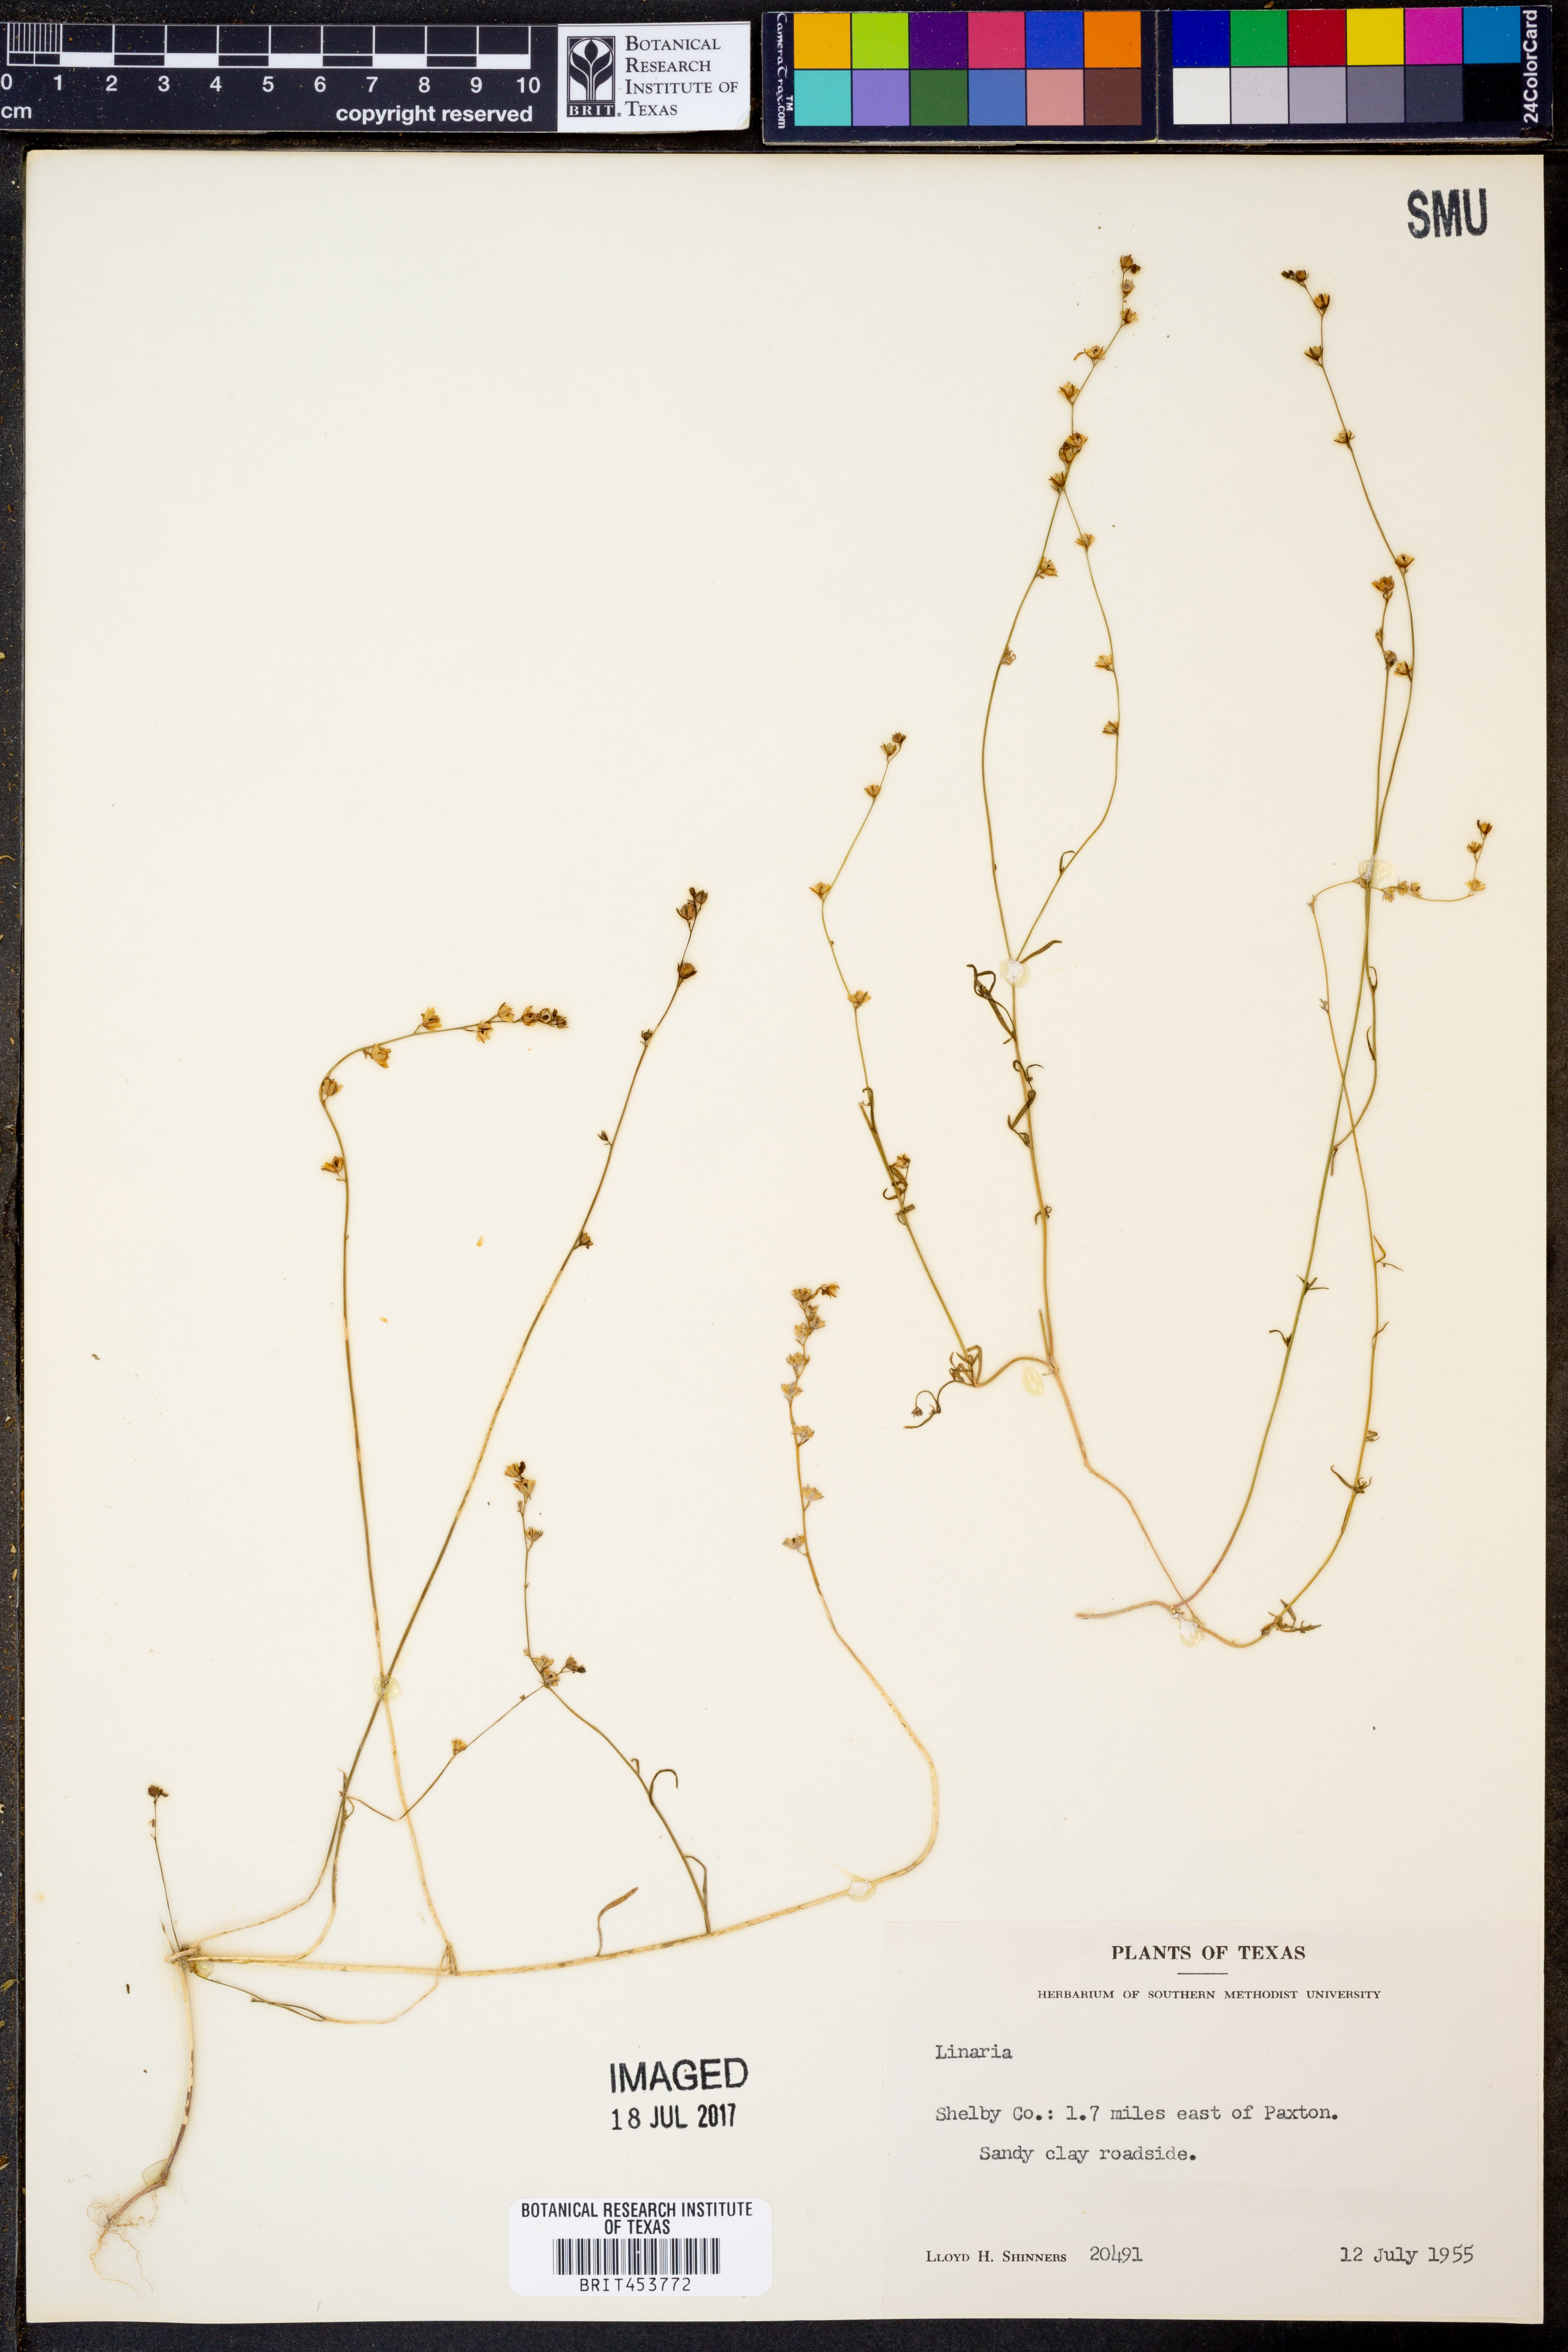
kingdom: Plantae
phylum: Tracheophyta
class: Magnoliopsida
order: Lamiales
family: Plantaginaceae
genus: Linaria
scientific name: Linaria
